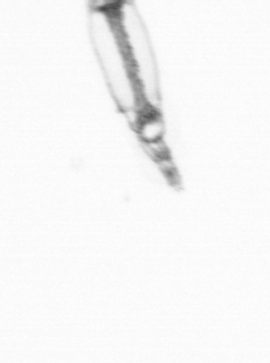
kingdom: Animalia
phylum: Arthropoda
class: Copepoda
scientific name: Copepoda
